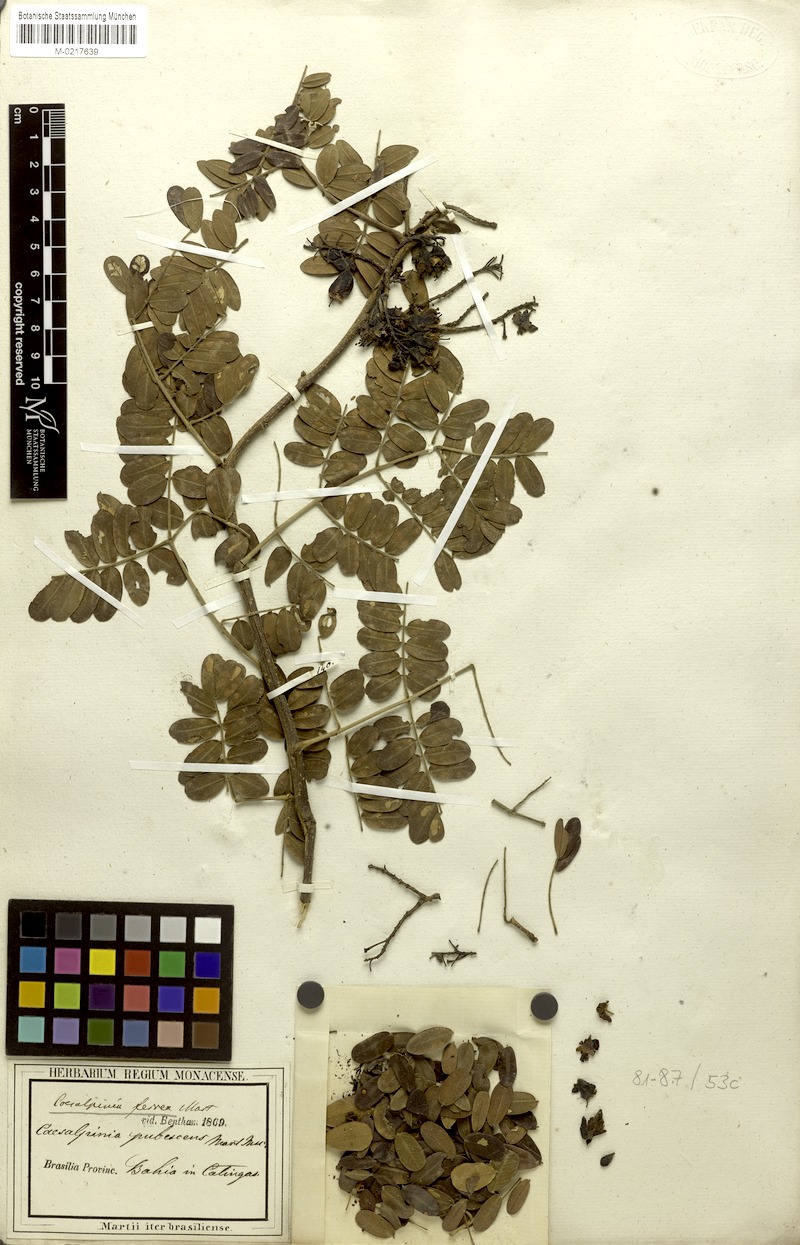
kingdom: Plantae
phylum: Tracheophyta
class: Magnoliopsida
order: Fabales
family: Fabaceae
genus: Libidibia
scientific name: Libidibia ferrea
